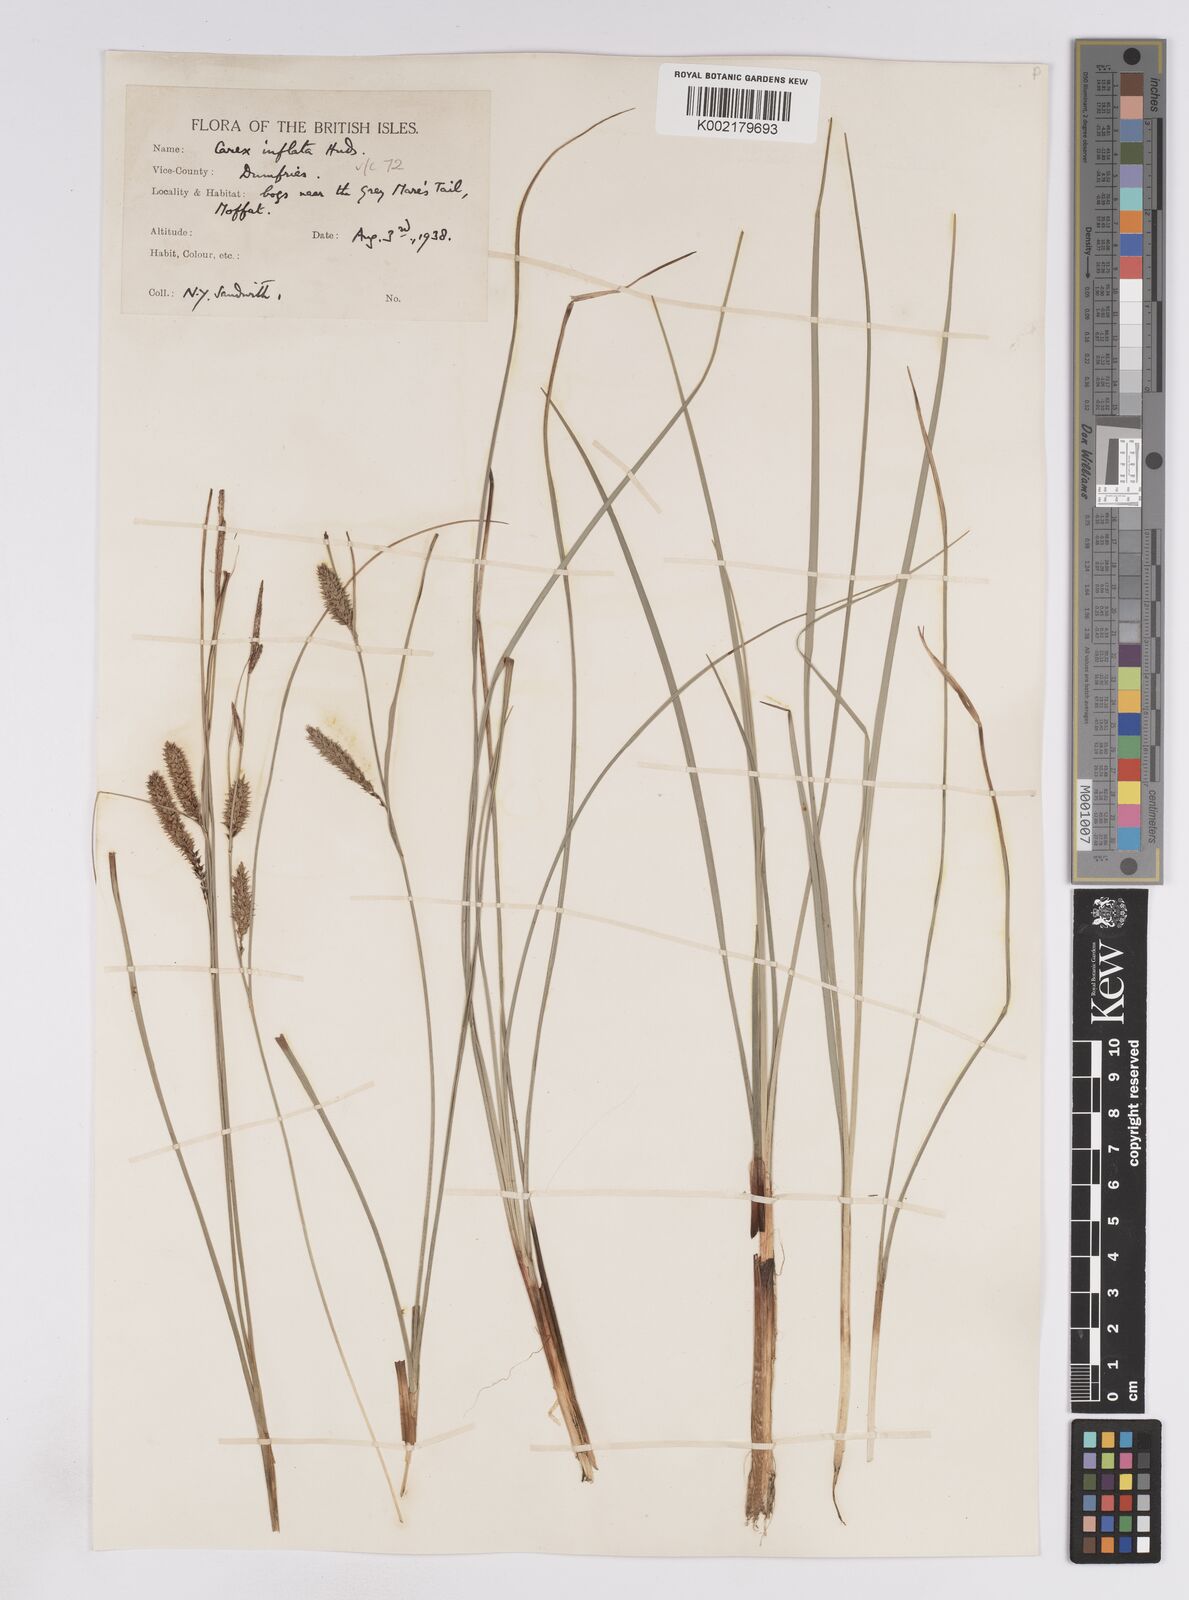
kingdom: Plantae
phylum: Tracheophyta
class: Liliopsida
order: Poales
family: Cyperaceae
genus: Carex
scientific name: Carex rostrata
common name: Bottle sedge
